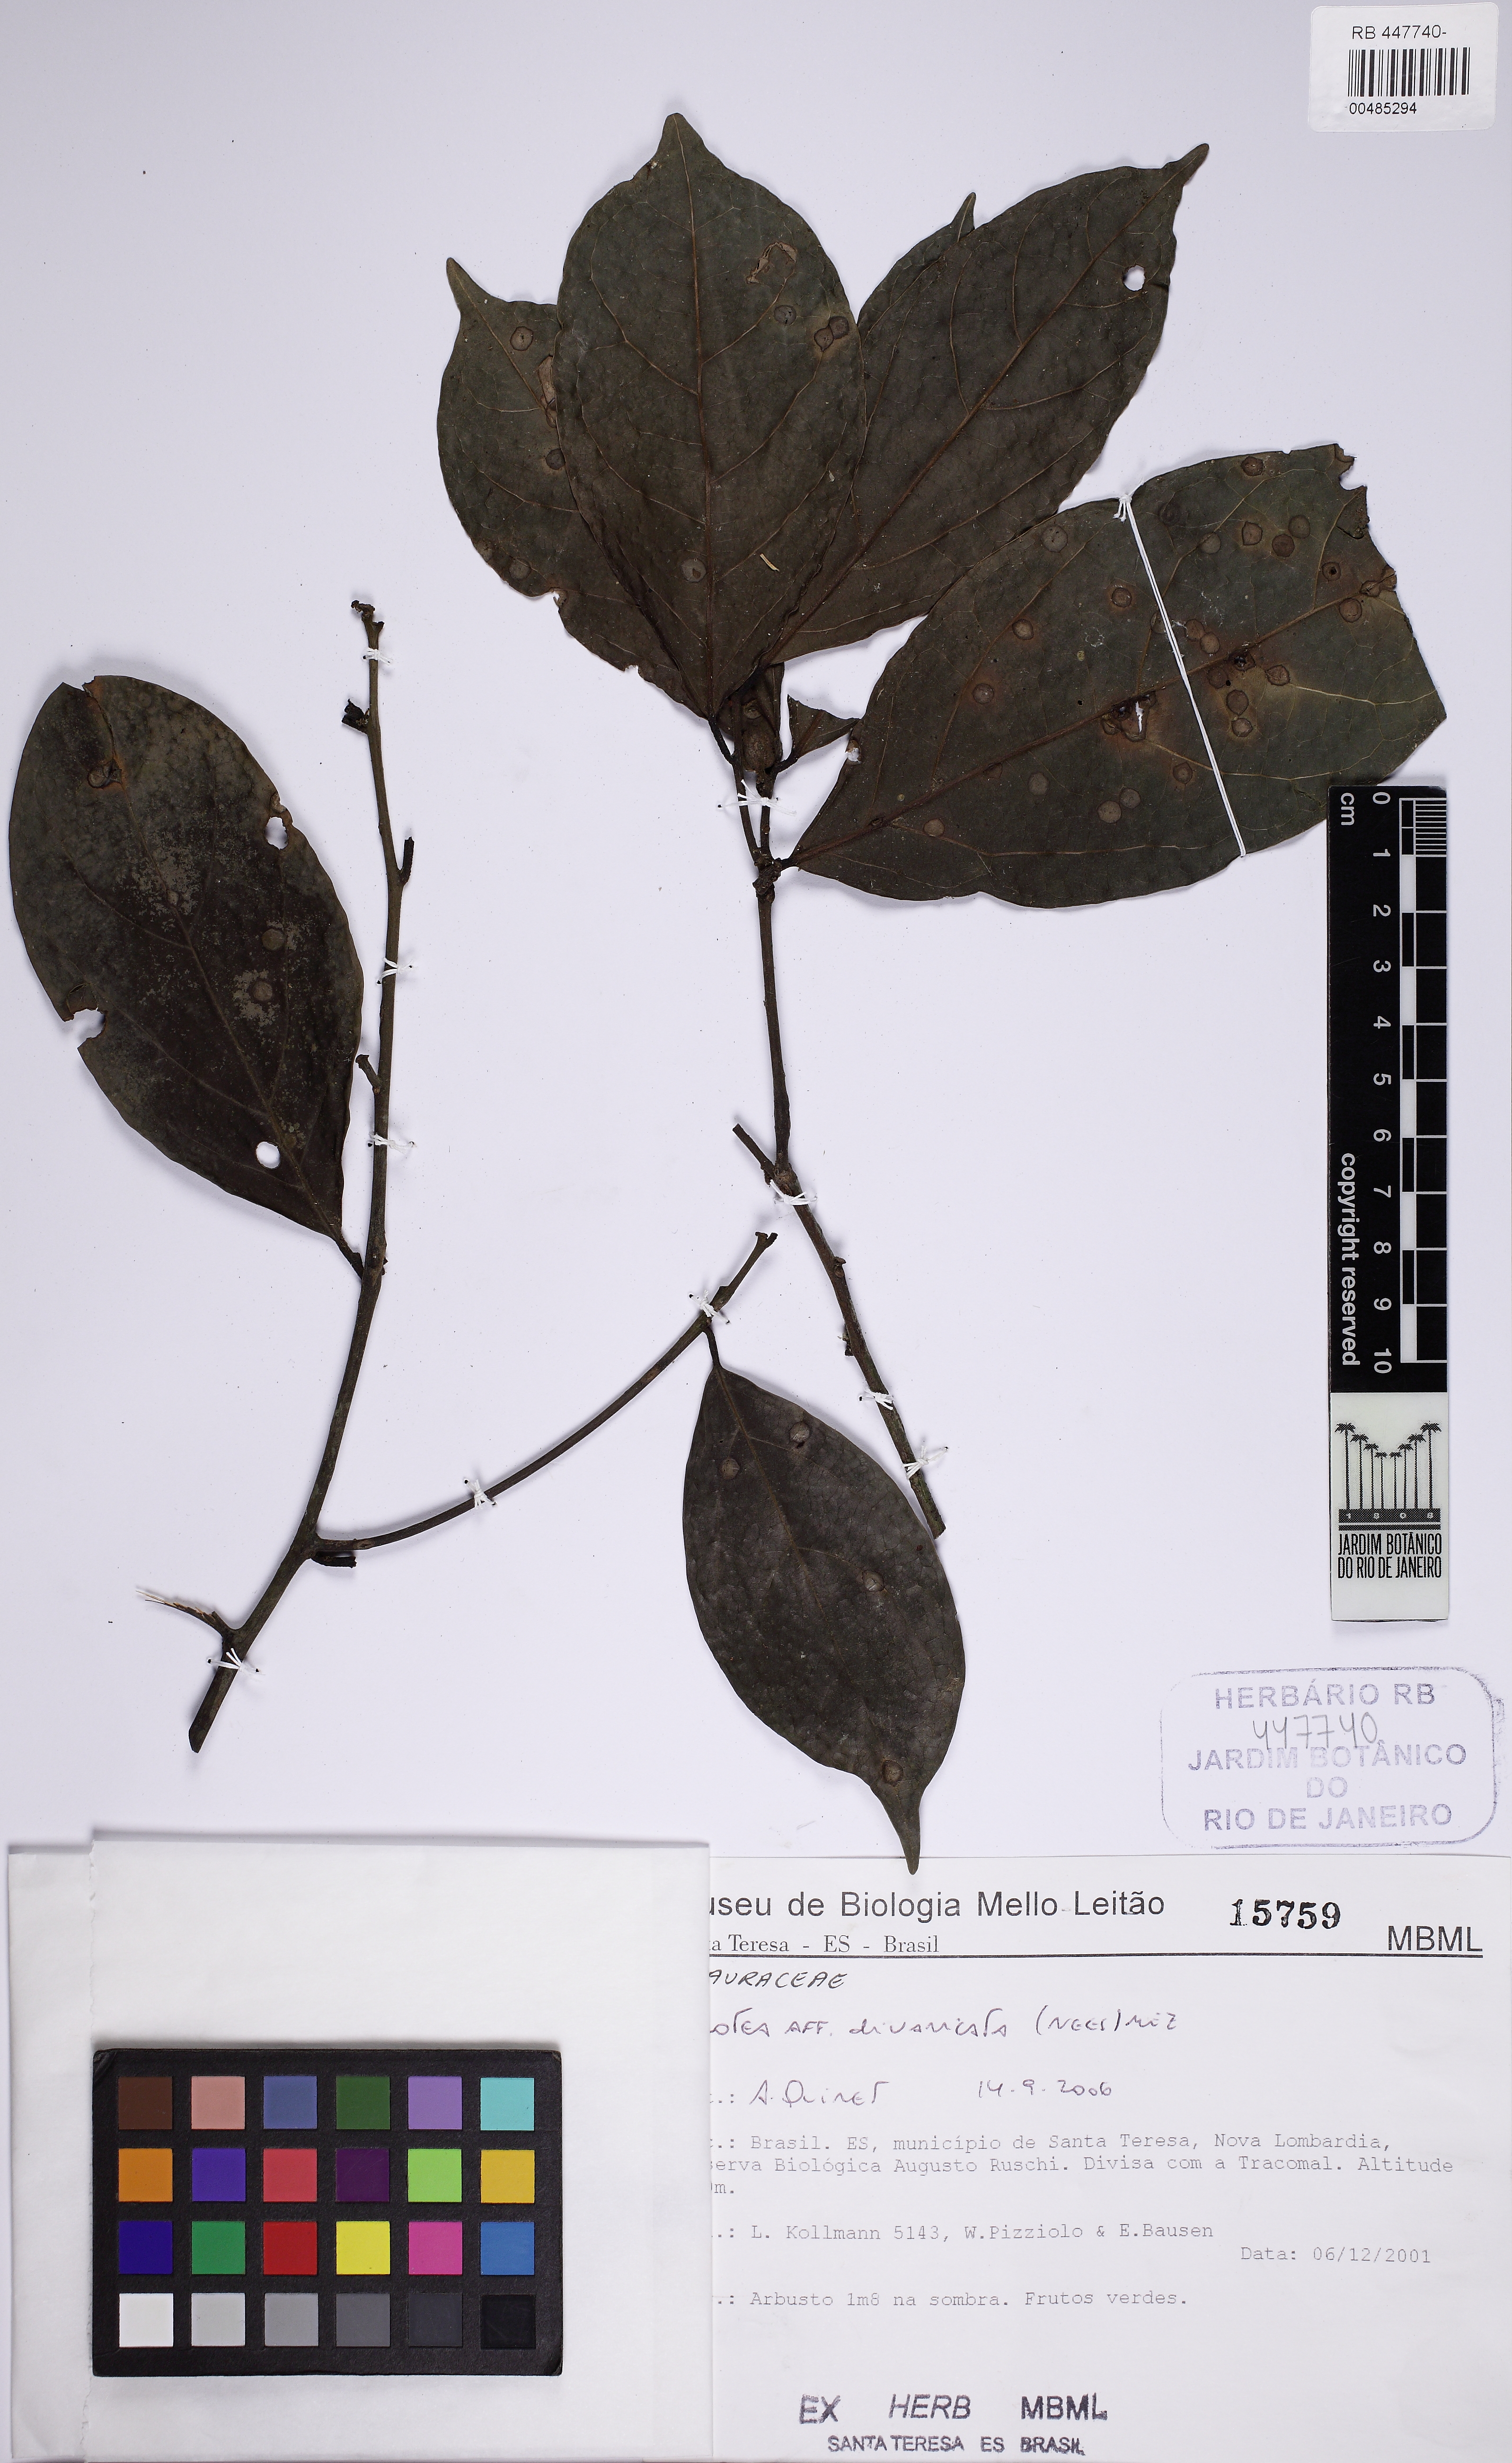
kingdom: Plantae
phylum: Tracheophyta
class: Magnoliopsida
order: Laurales
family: Lauraceae
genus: Ocotea
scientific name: Ocotea divaricata
